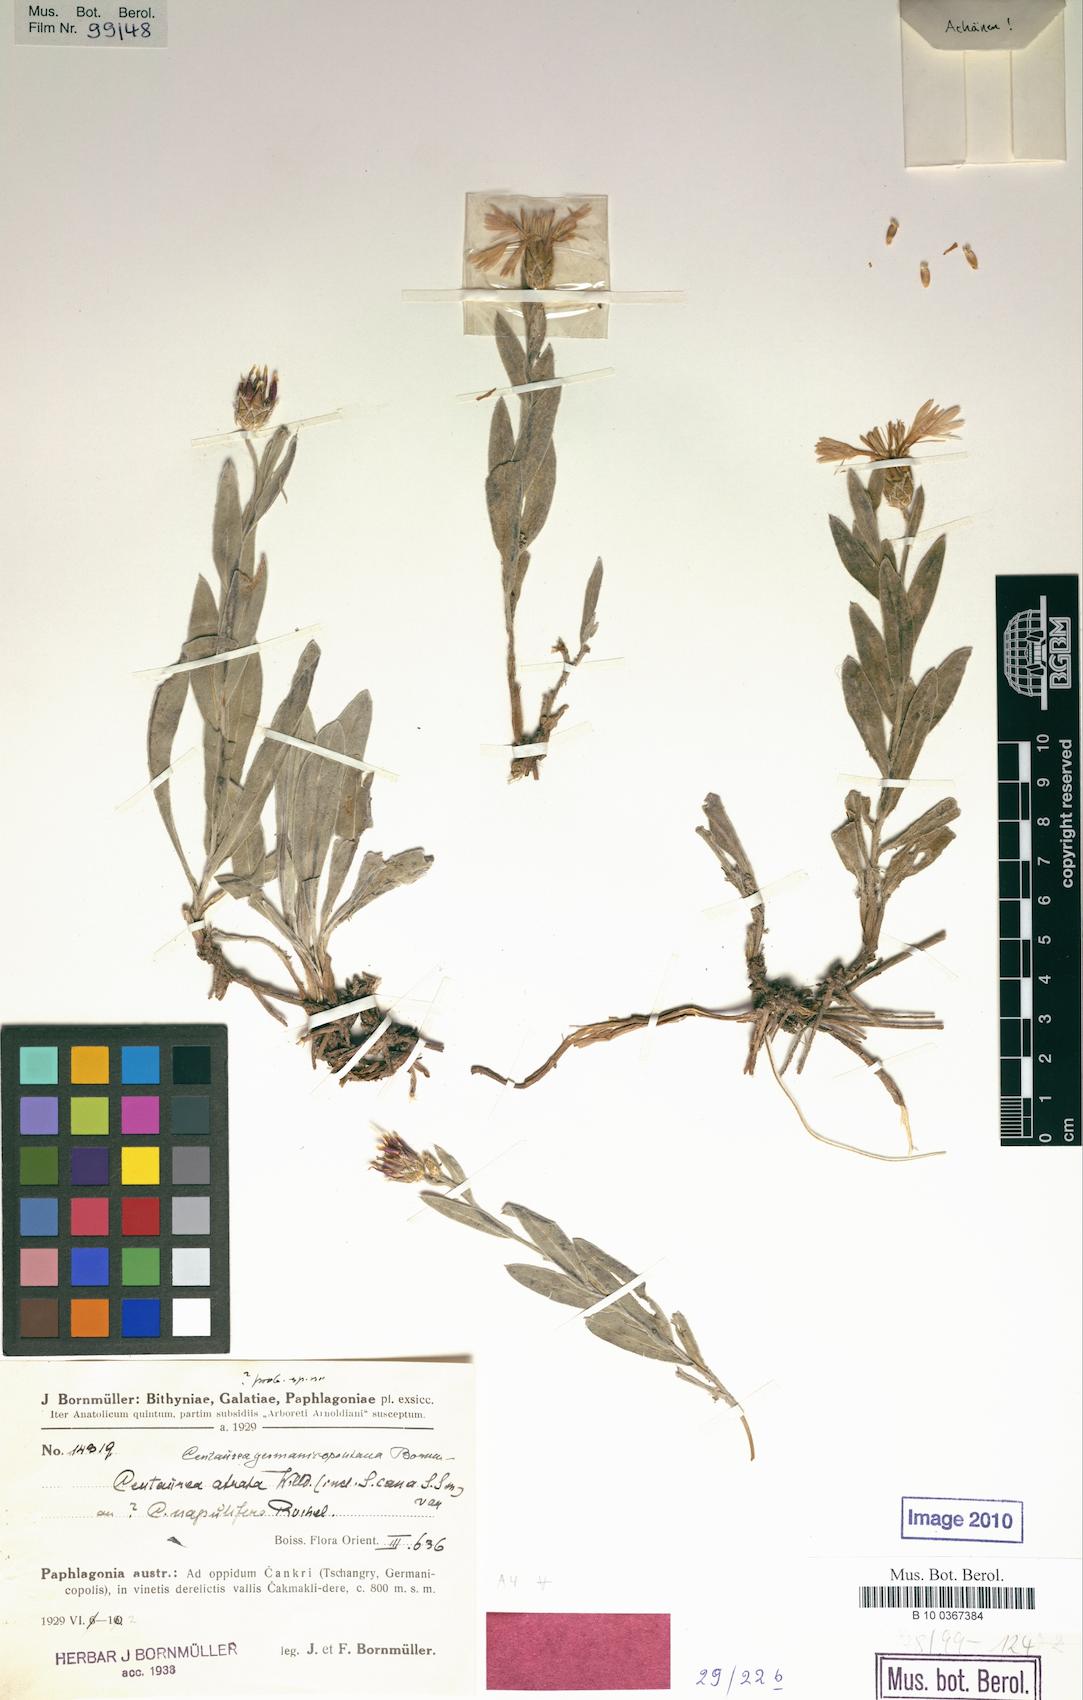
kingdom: Plantae
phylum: Tracheophyta
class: Magnoliopsida
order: Asterales
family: Asteraceae
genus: Centaurea
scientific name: Centaurea germanicopolitana
